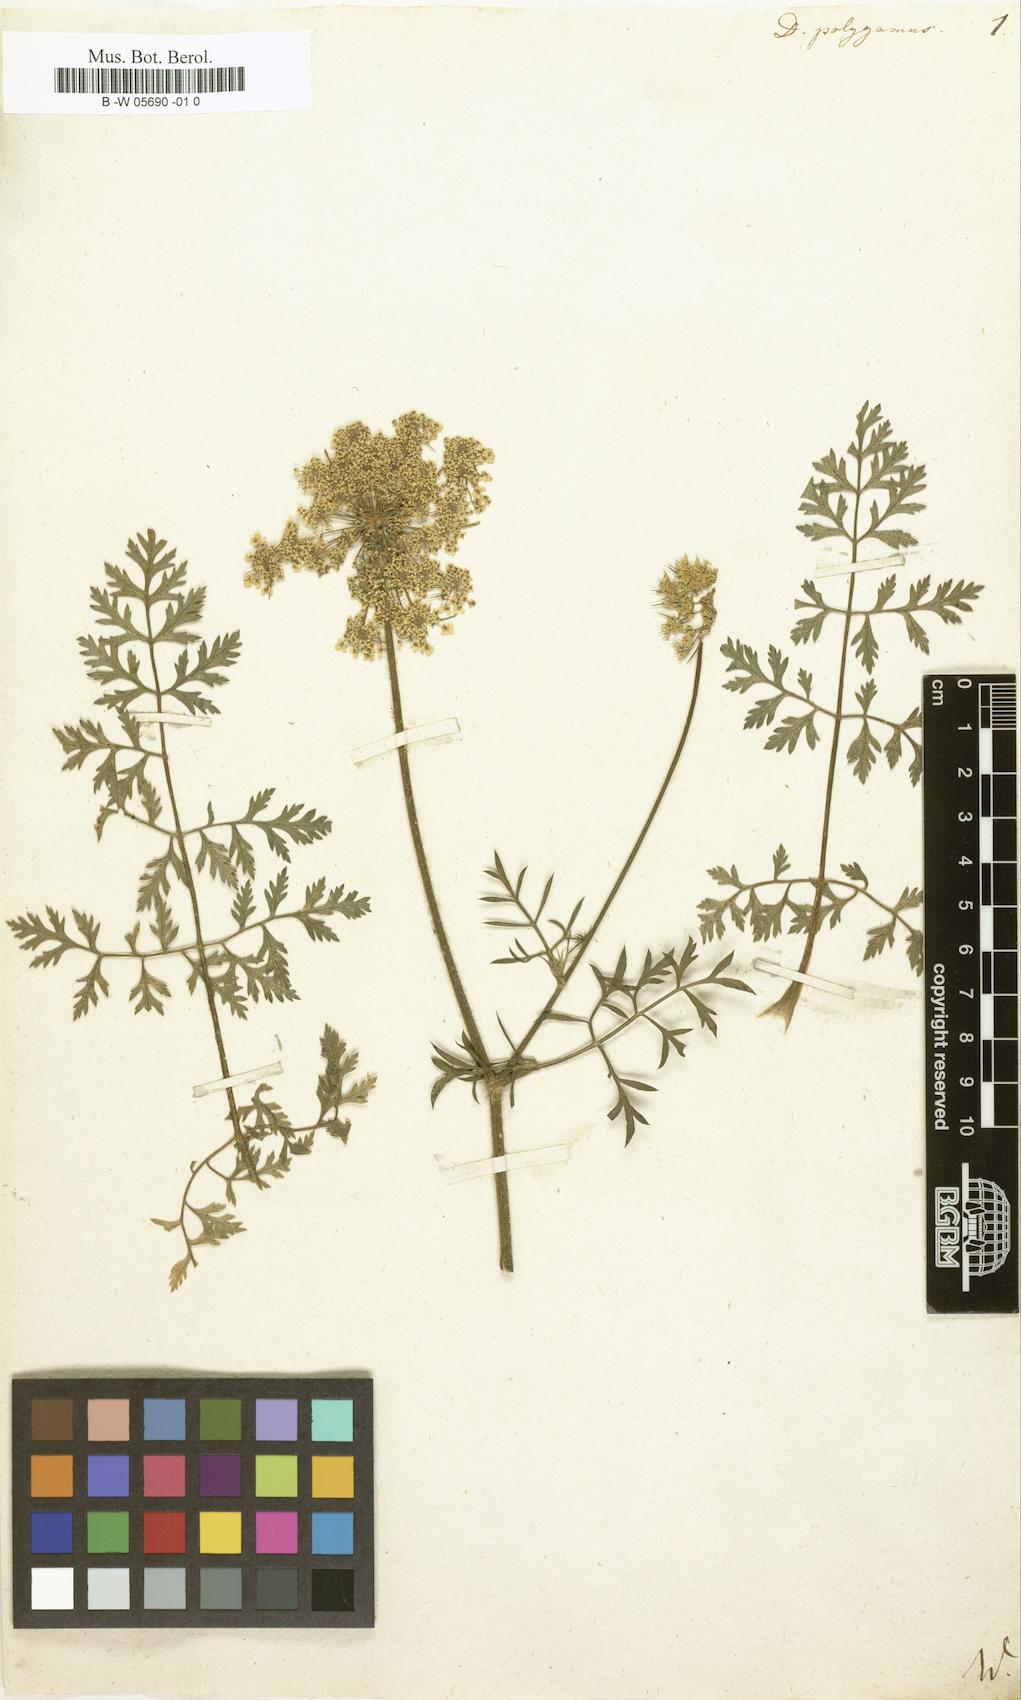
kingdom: Plantae
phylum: Tracheophyta
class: Magnoliopsida
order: Apiales
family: Apiaceae
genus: Daucus
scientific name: Daucus carota
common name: Wild carrot
